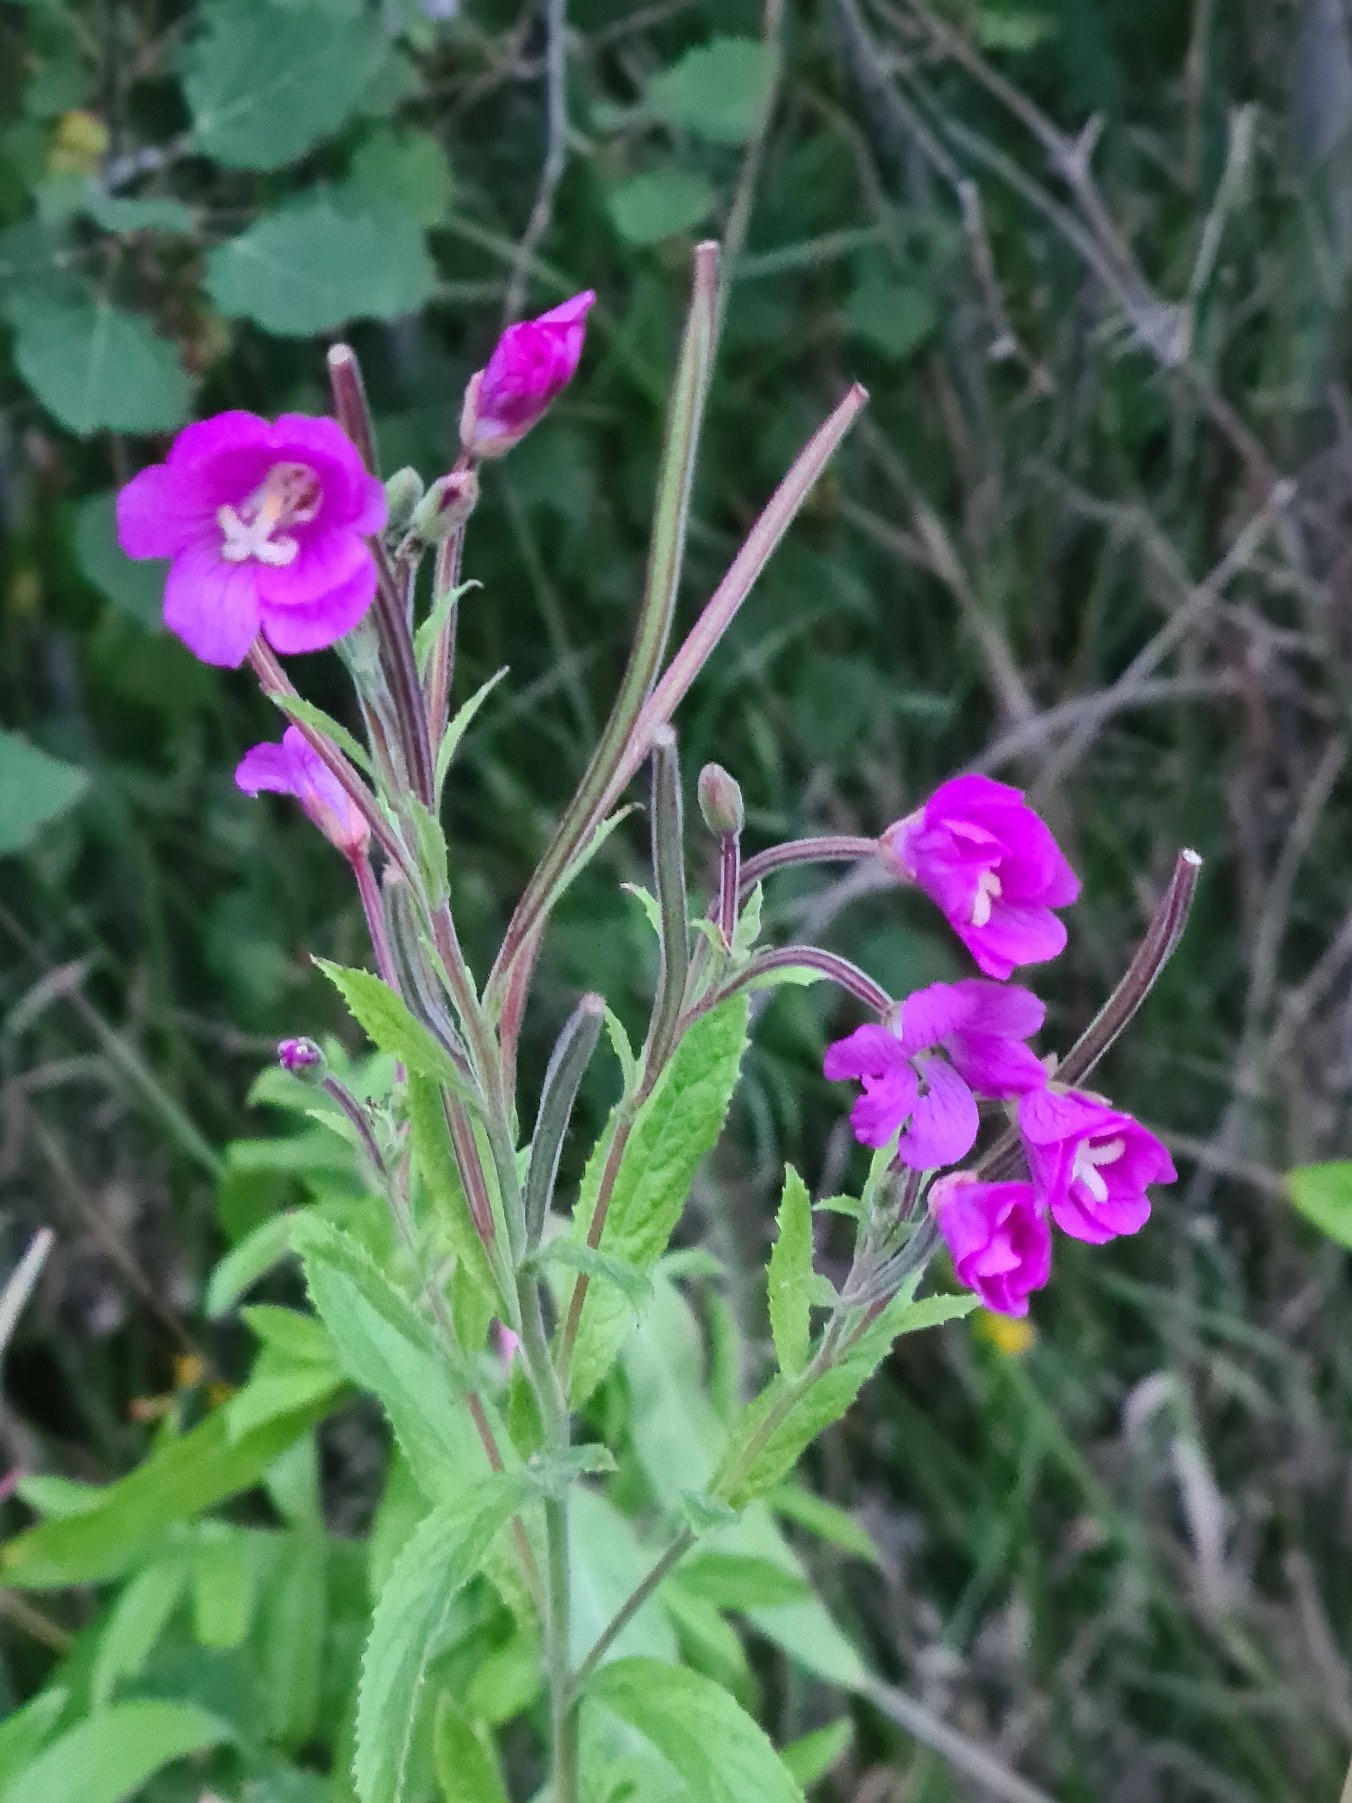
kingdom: Plantae
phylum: Tracheophyta
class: Magnoliopsida
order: Myrtales
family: Onagraceae
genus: Epilobium
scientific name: Epilobium hirsutum
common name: Lådden dueurt
